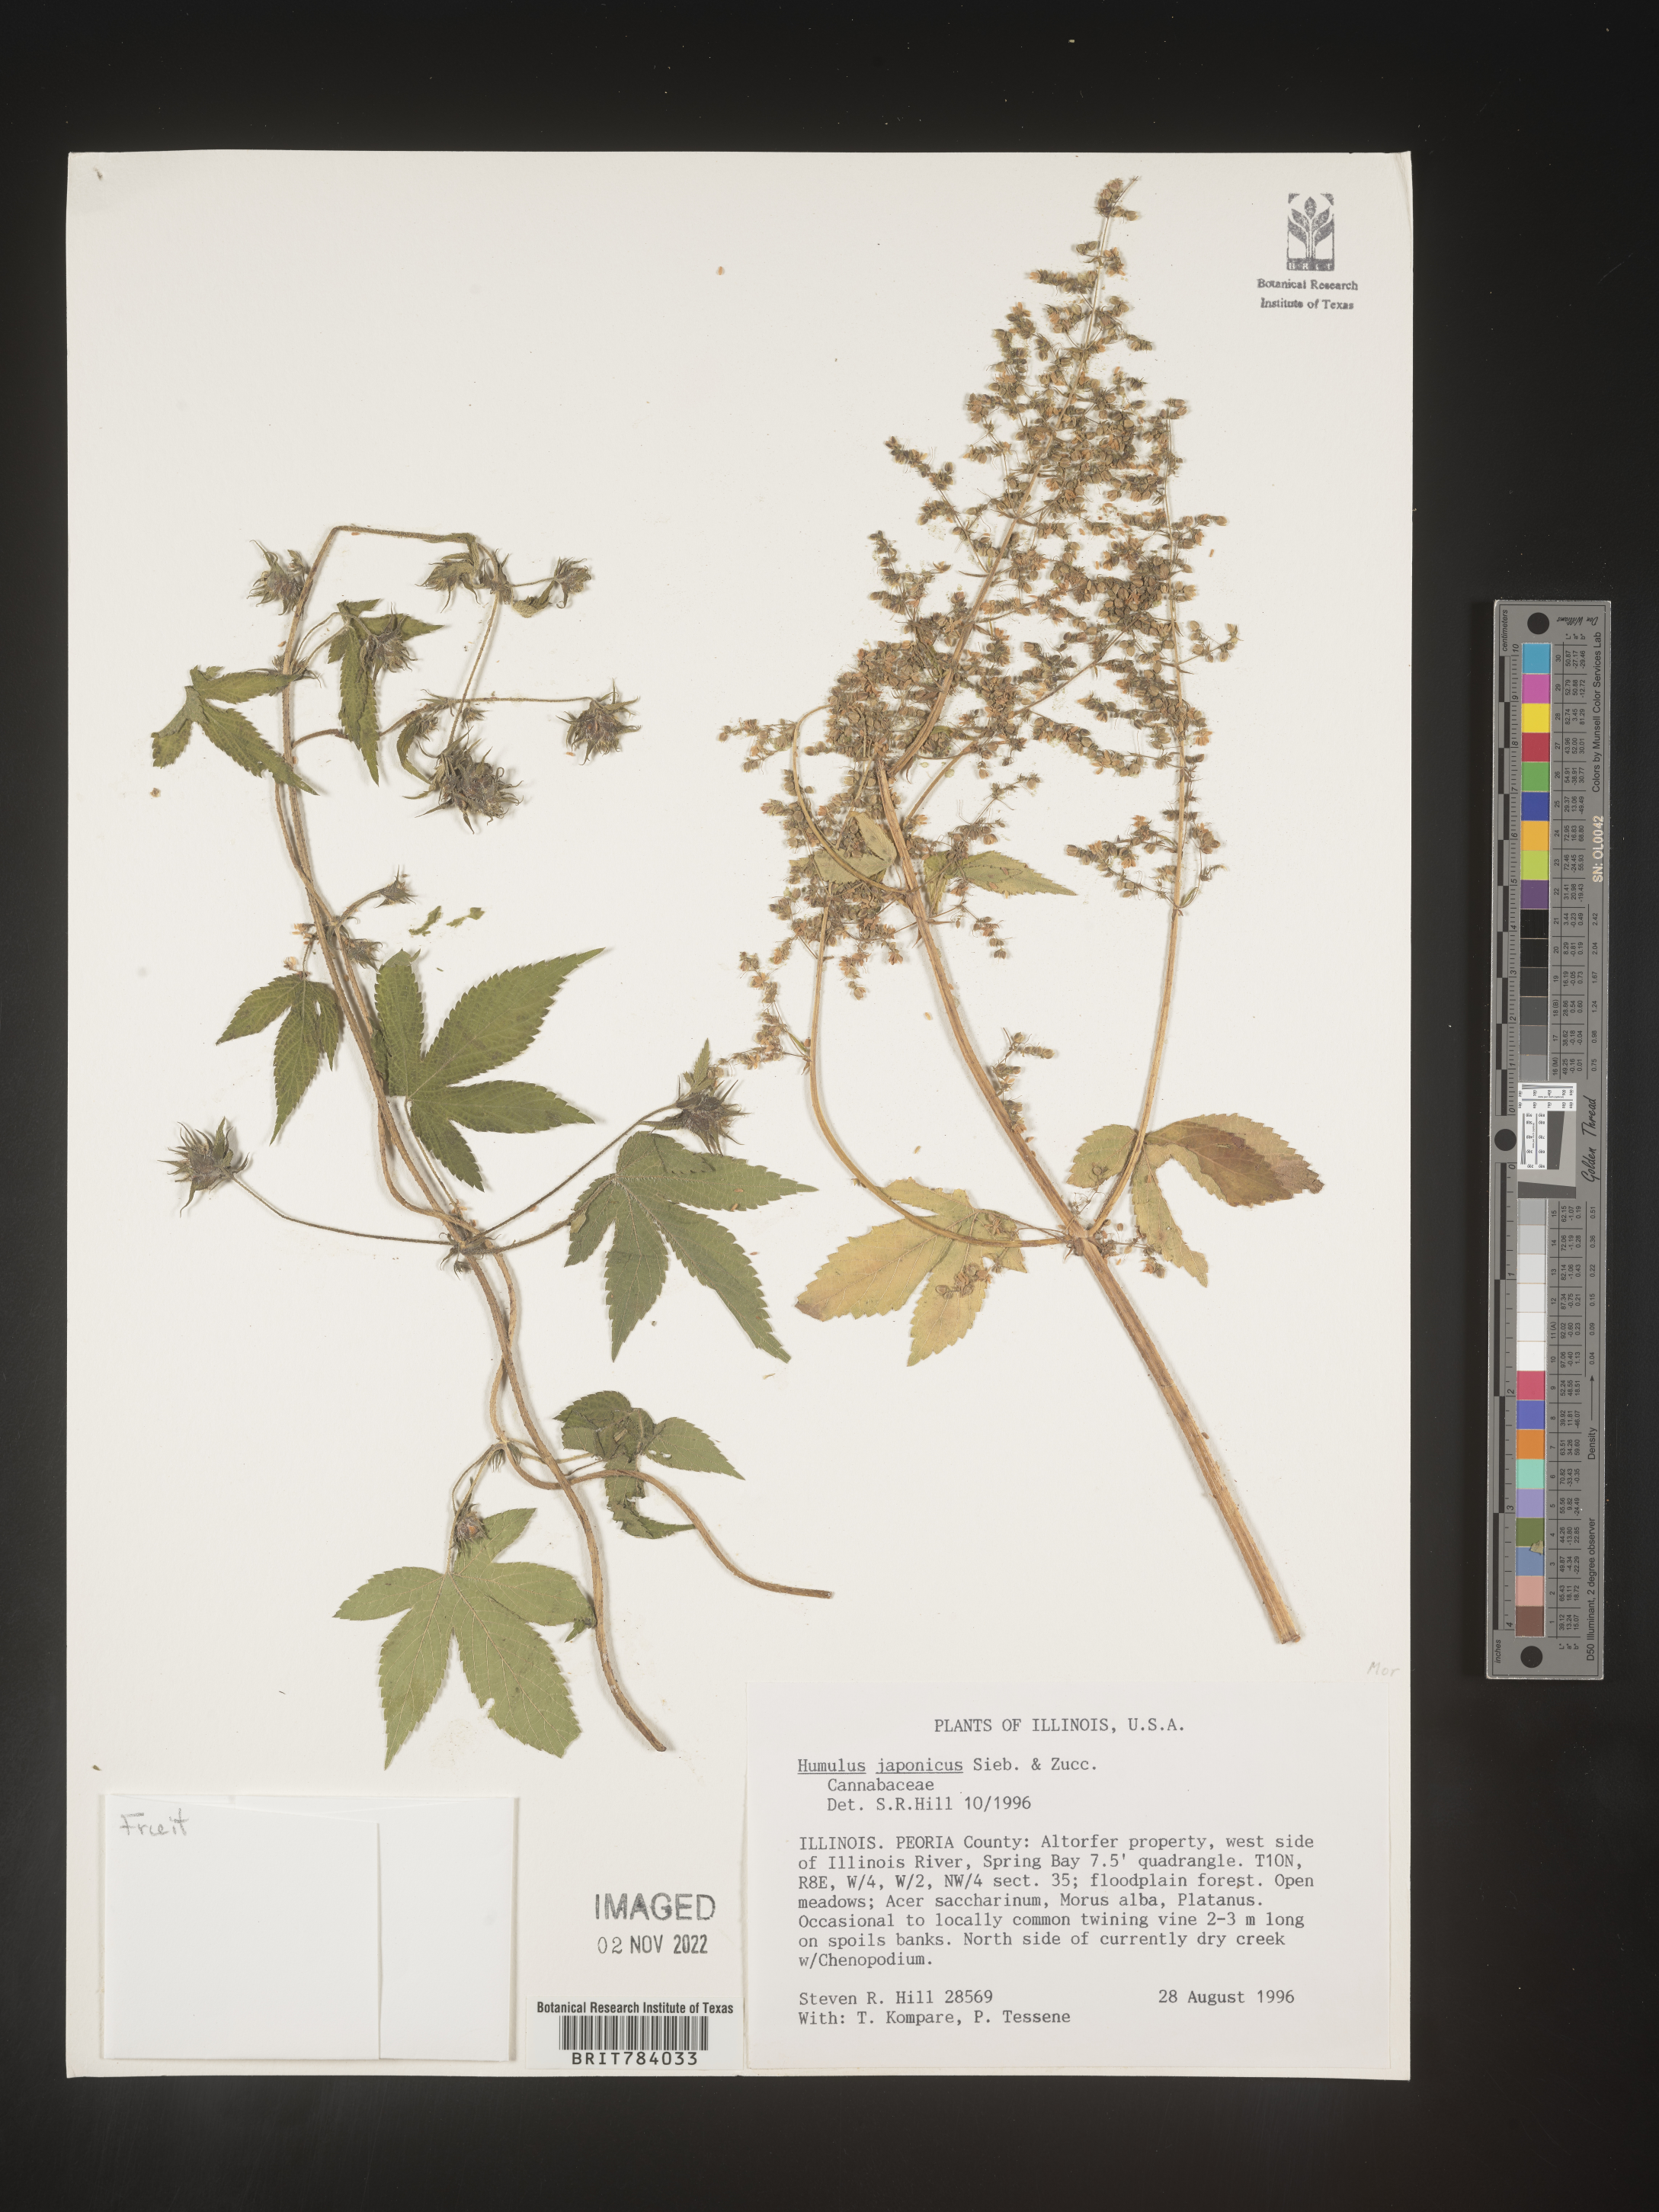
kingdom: Plantae
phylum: Tracheophyta
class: Magnoliopsida
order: Rosales
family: Cannabaceae
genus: Humulus
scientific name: Humulus scandens
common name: Japanese hop
